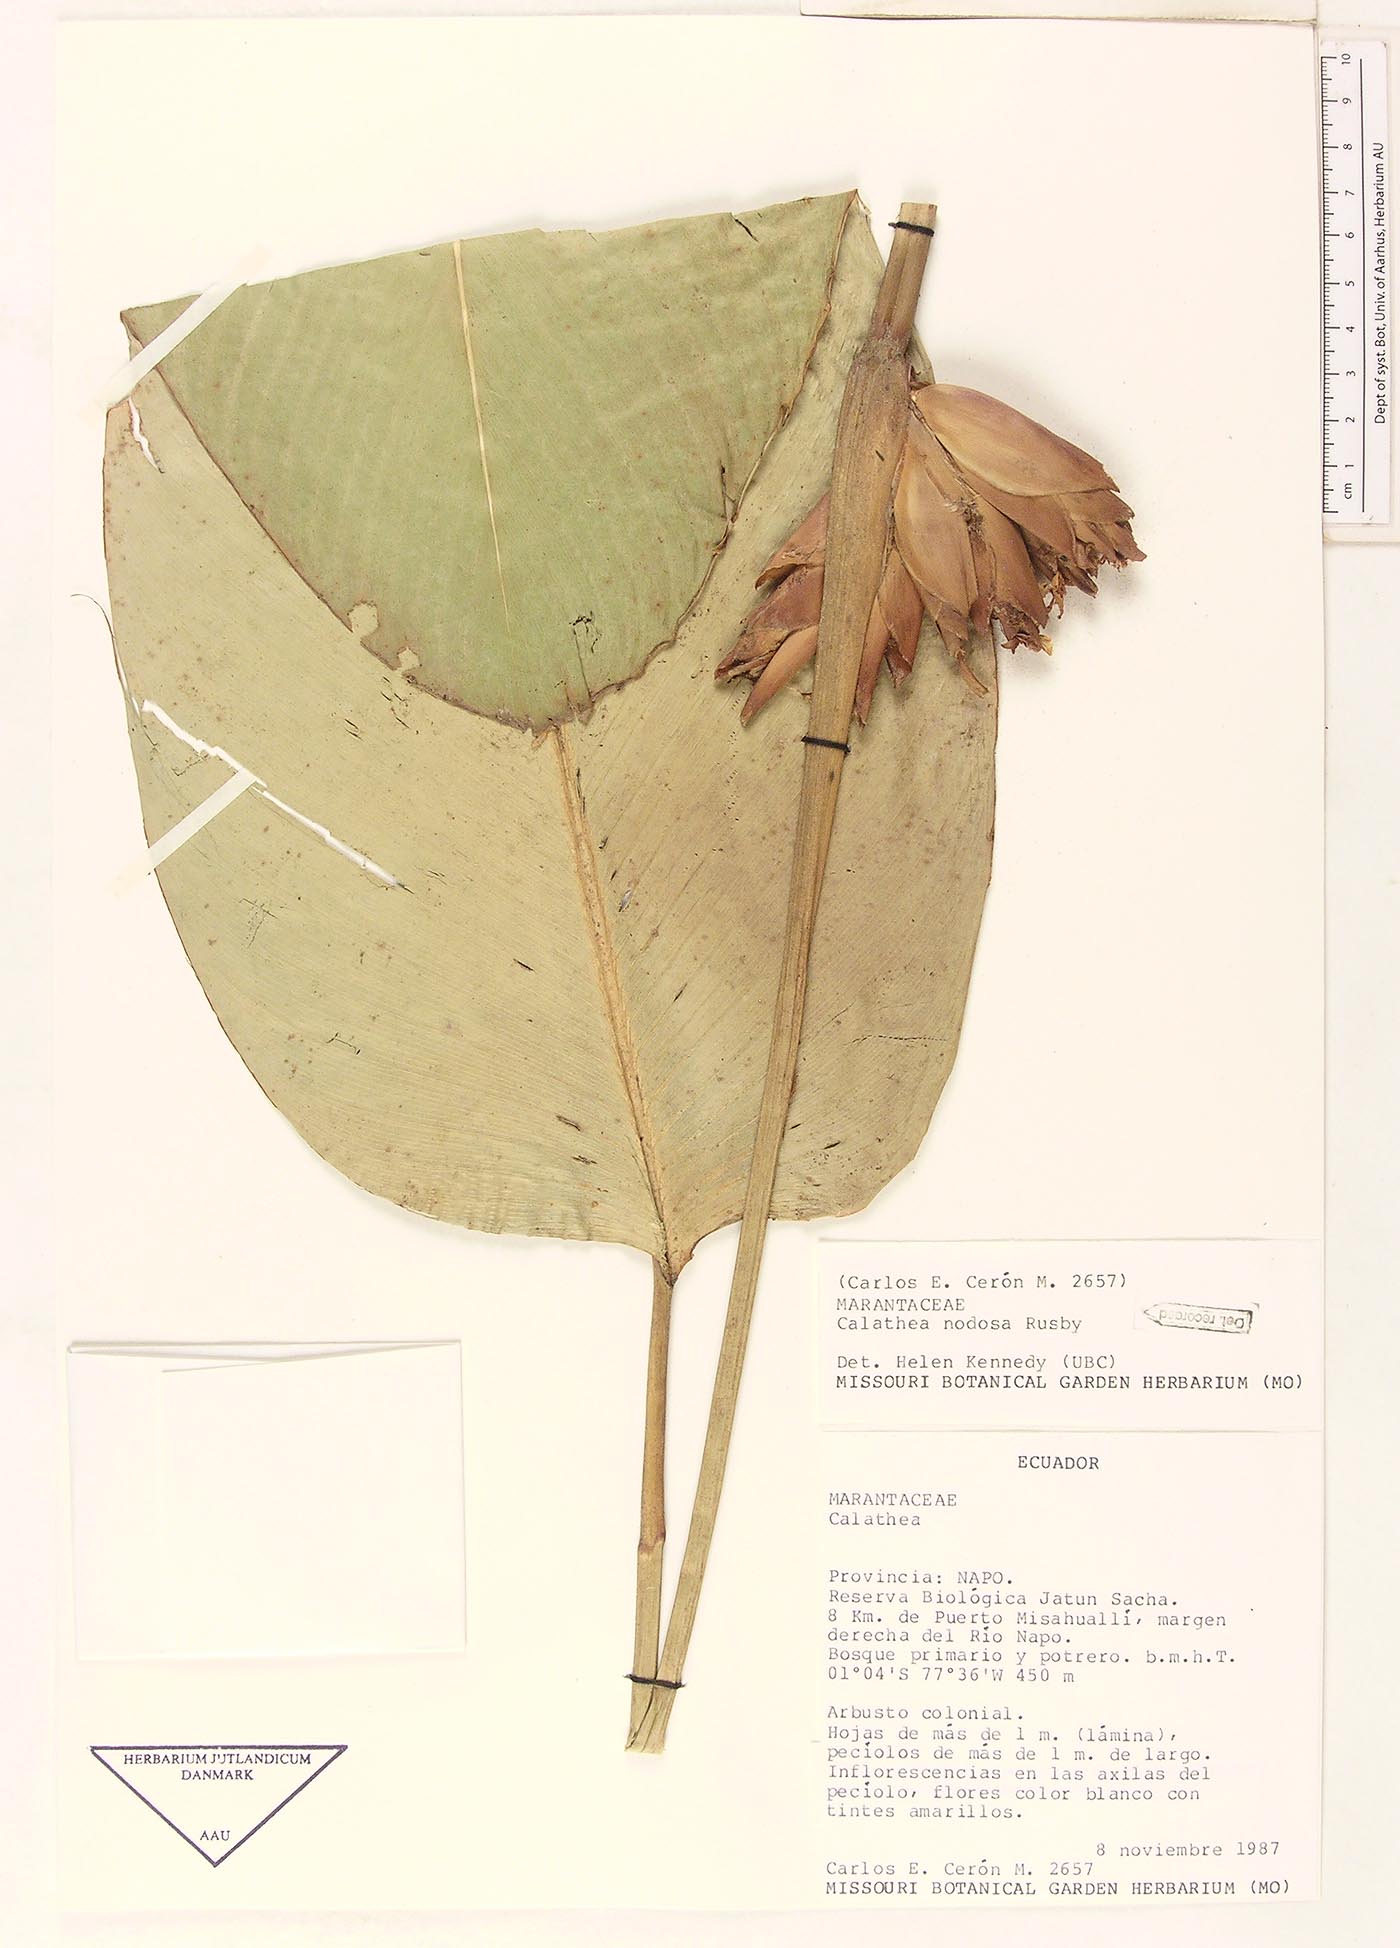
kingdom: Plantae
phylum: Tracheophyta
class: Liliopsida
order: Zingiberales
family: Marantaceae
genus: Calathea
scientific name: Calathea lateralis
